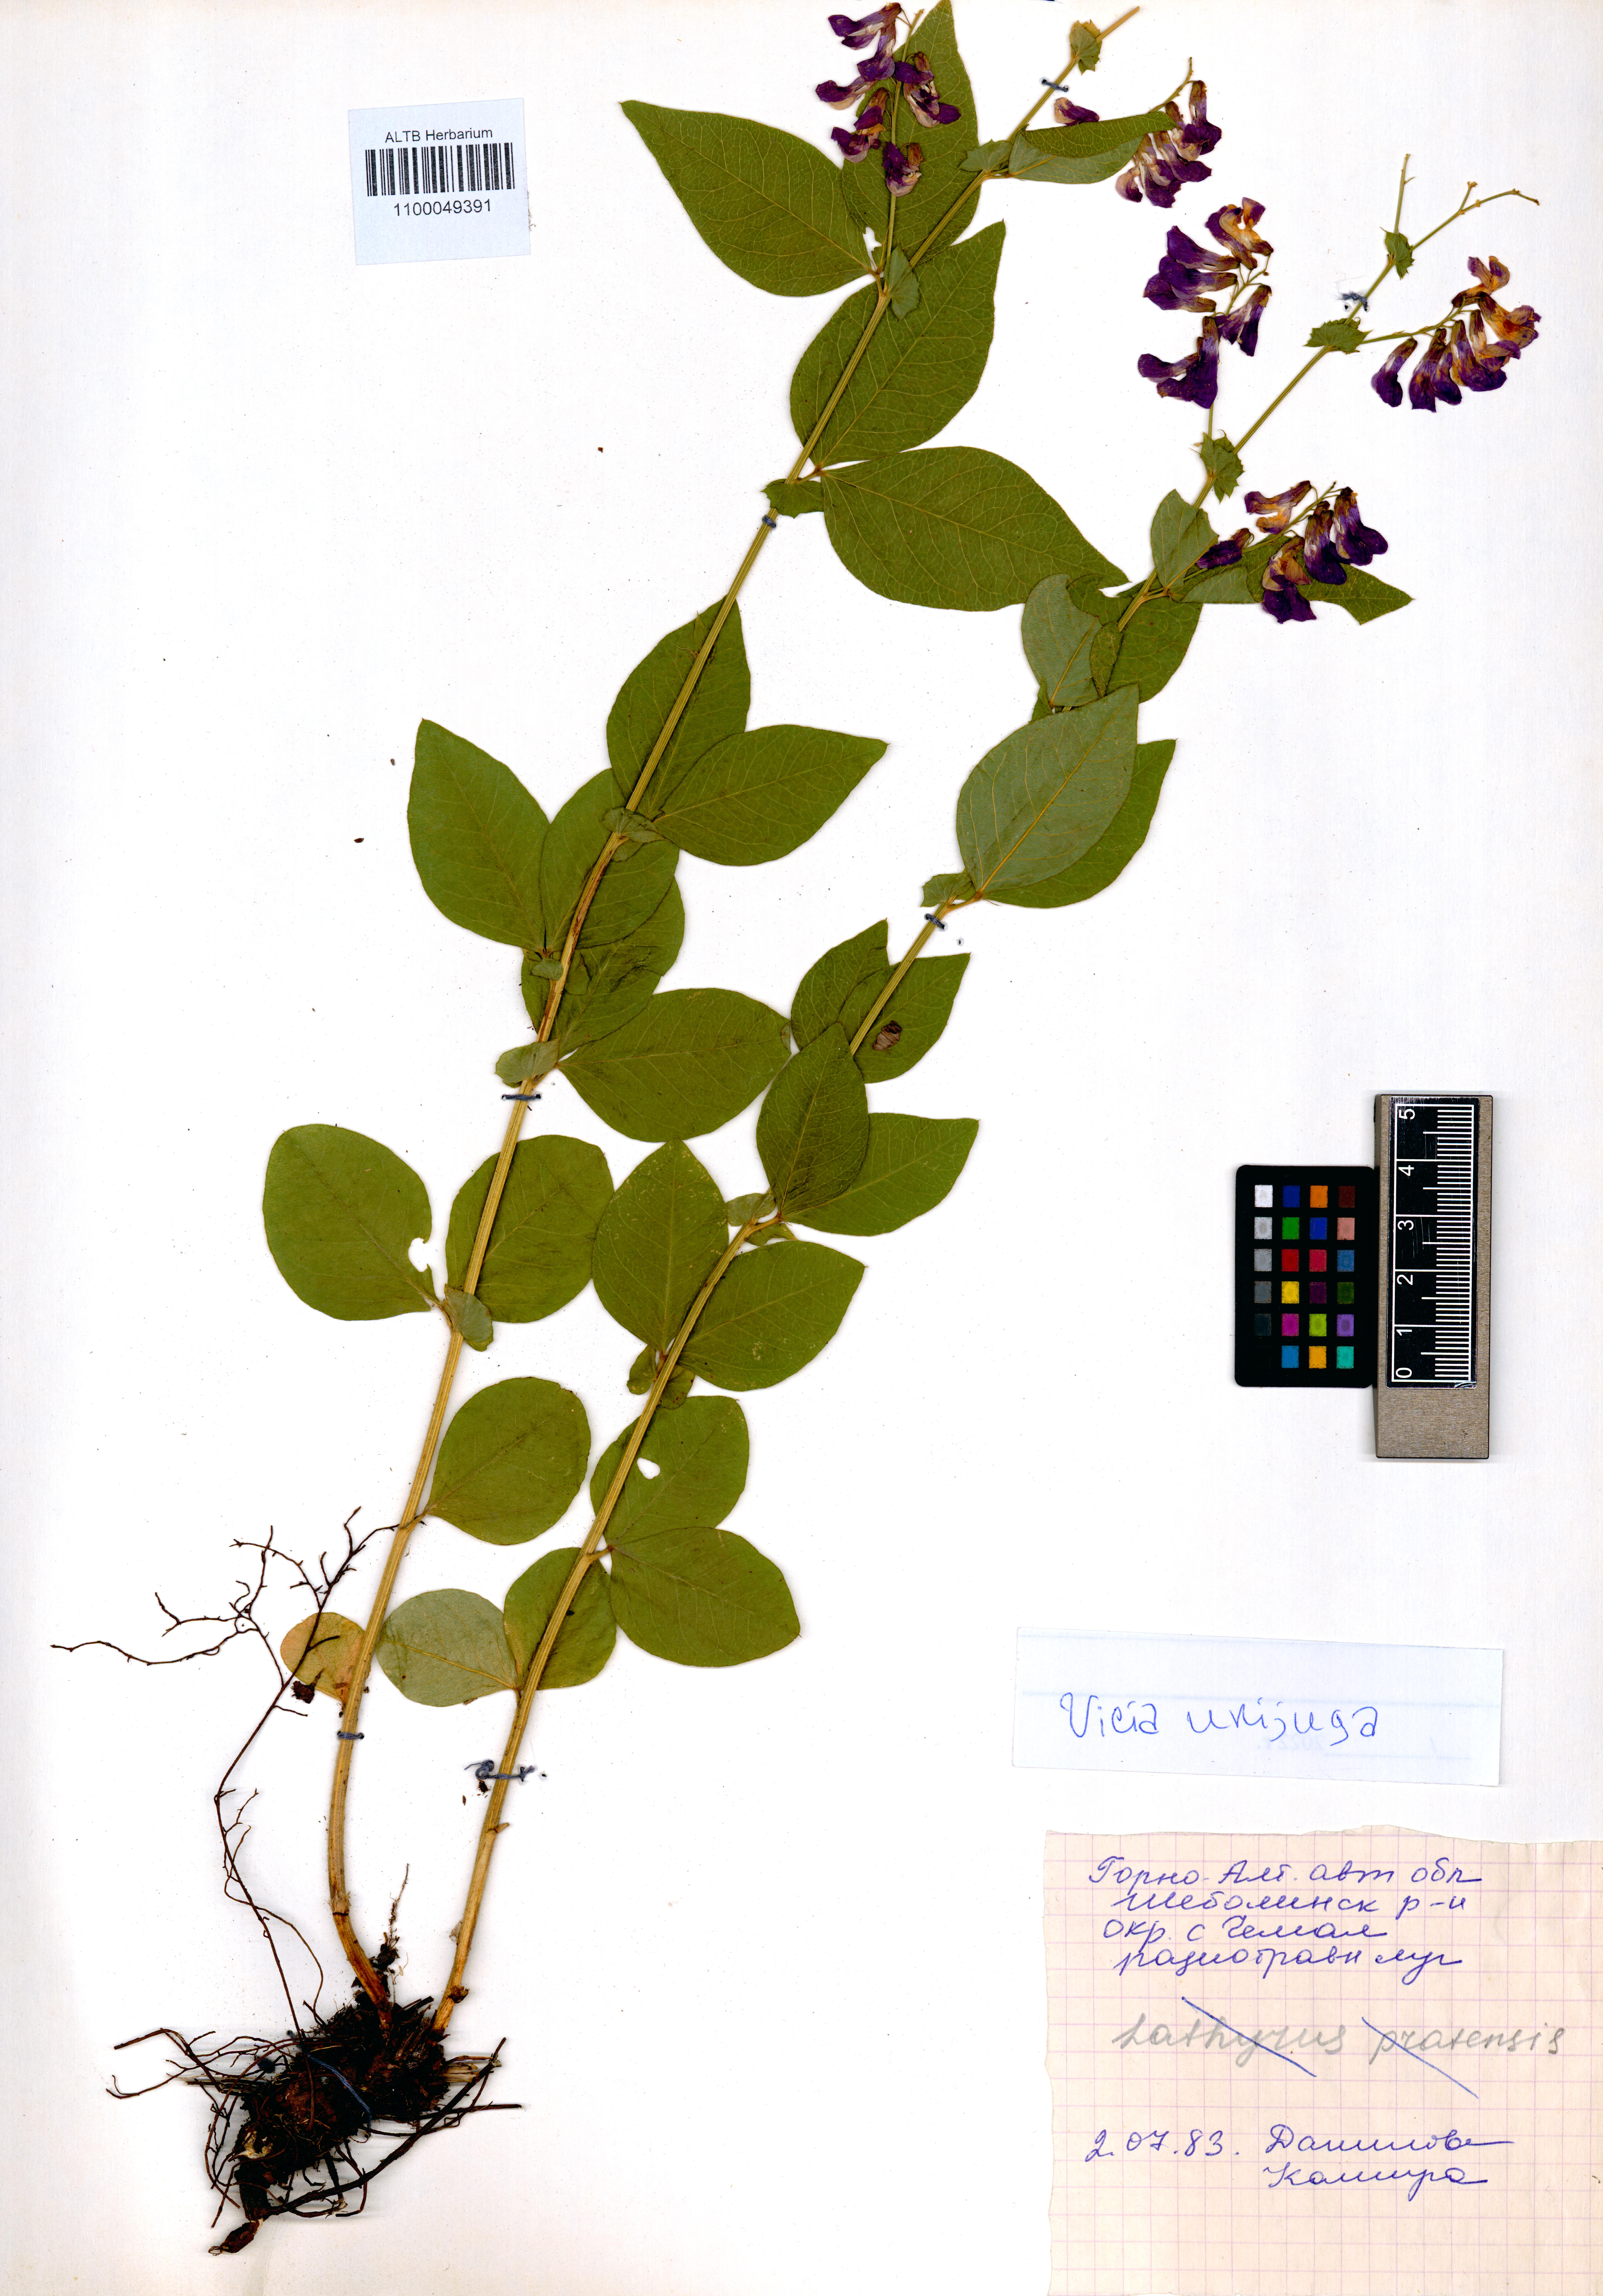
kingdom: Plantae
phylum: Tracheophyta
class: Magnoliopsida
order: Fabales
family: Fabaceae
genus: Vicia
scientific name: Vicia unijuga
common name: Two-leaf vetch
